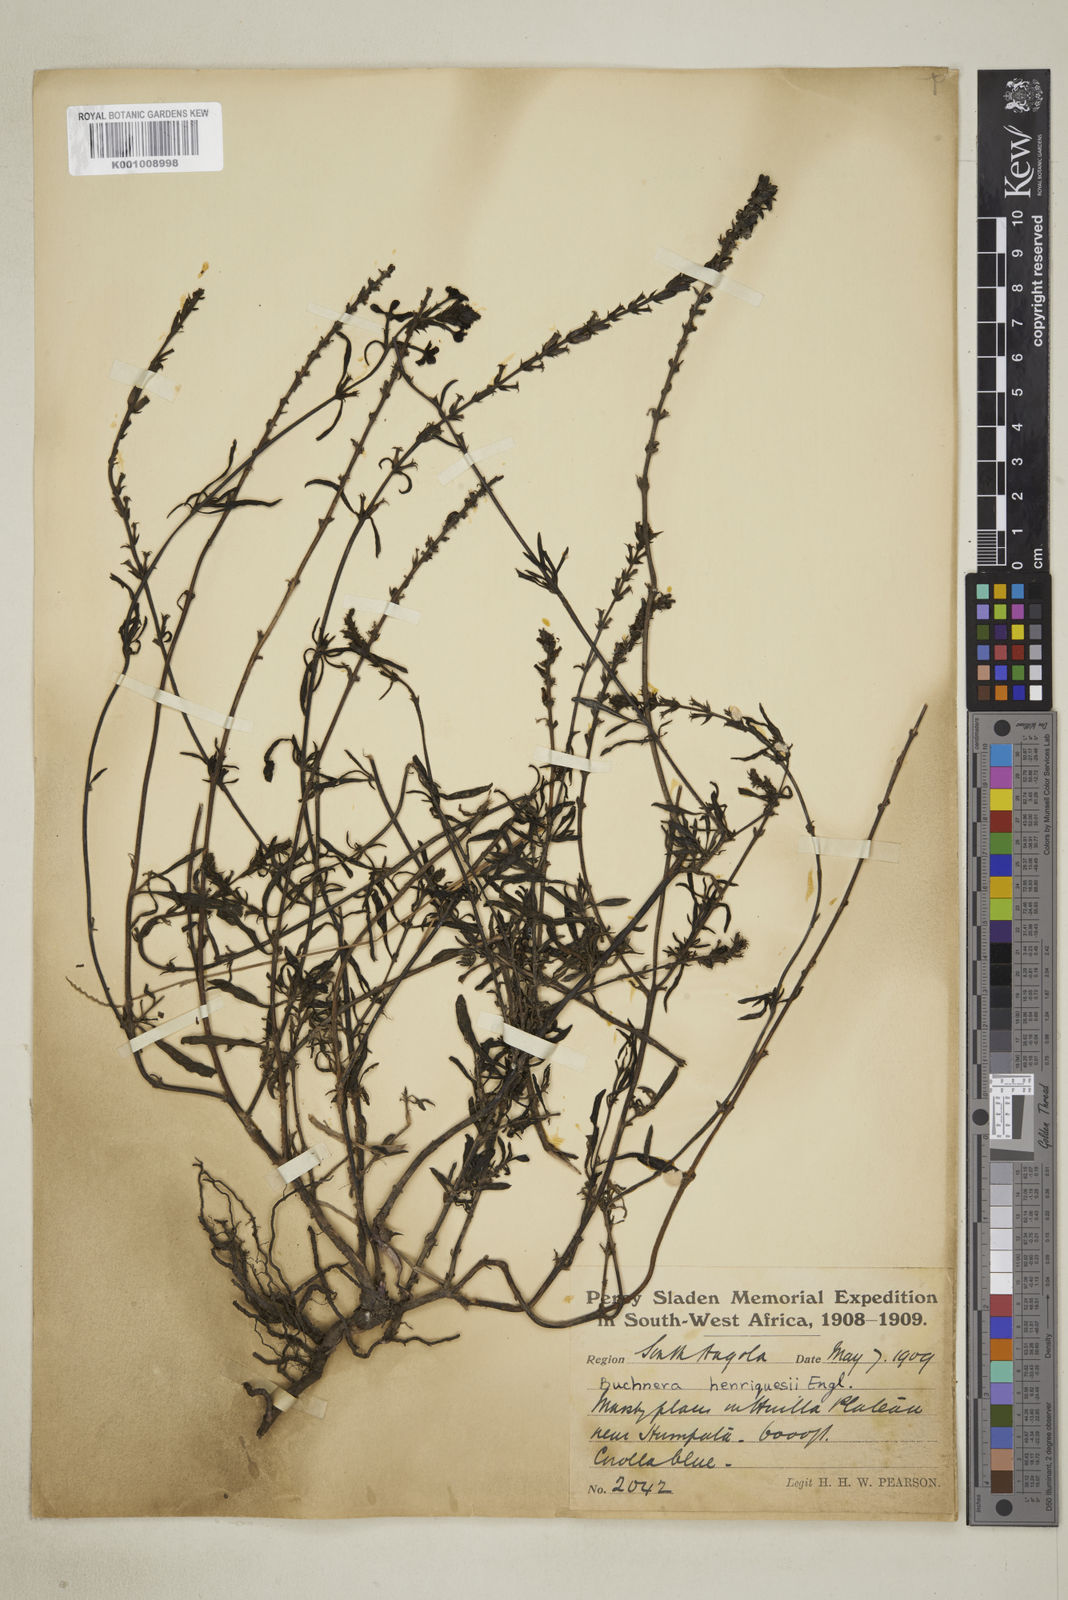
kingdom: Plantae
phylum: Tracheophyta
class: Magnoliopsida
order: Lamiales
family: Orobanchaceae
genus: Buchnera
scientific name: Buchnera henriquesii
